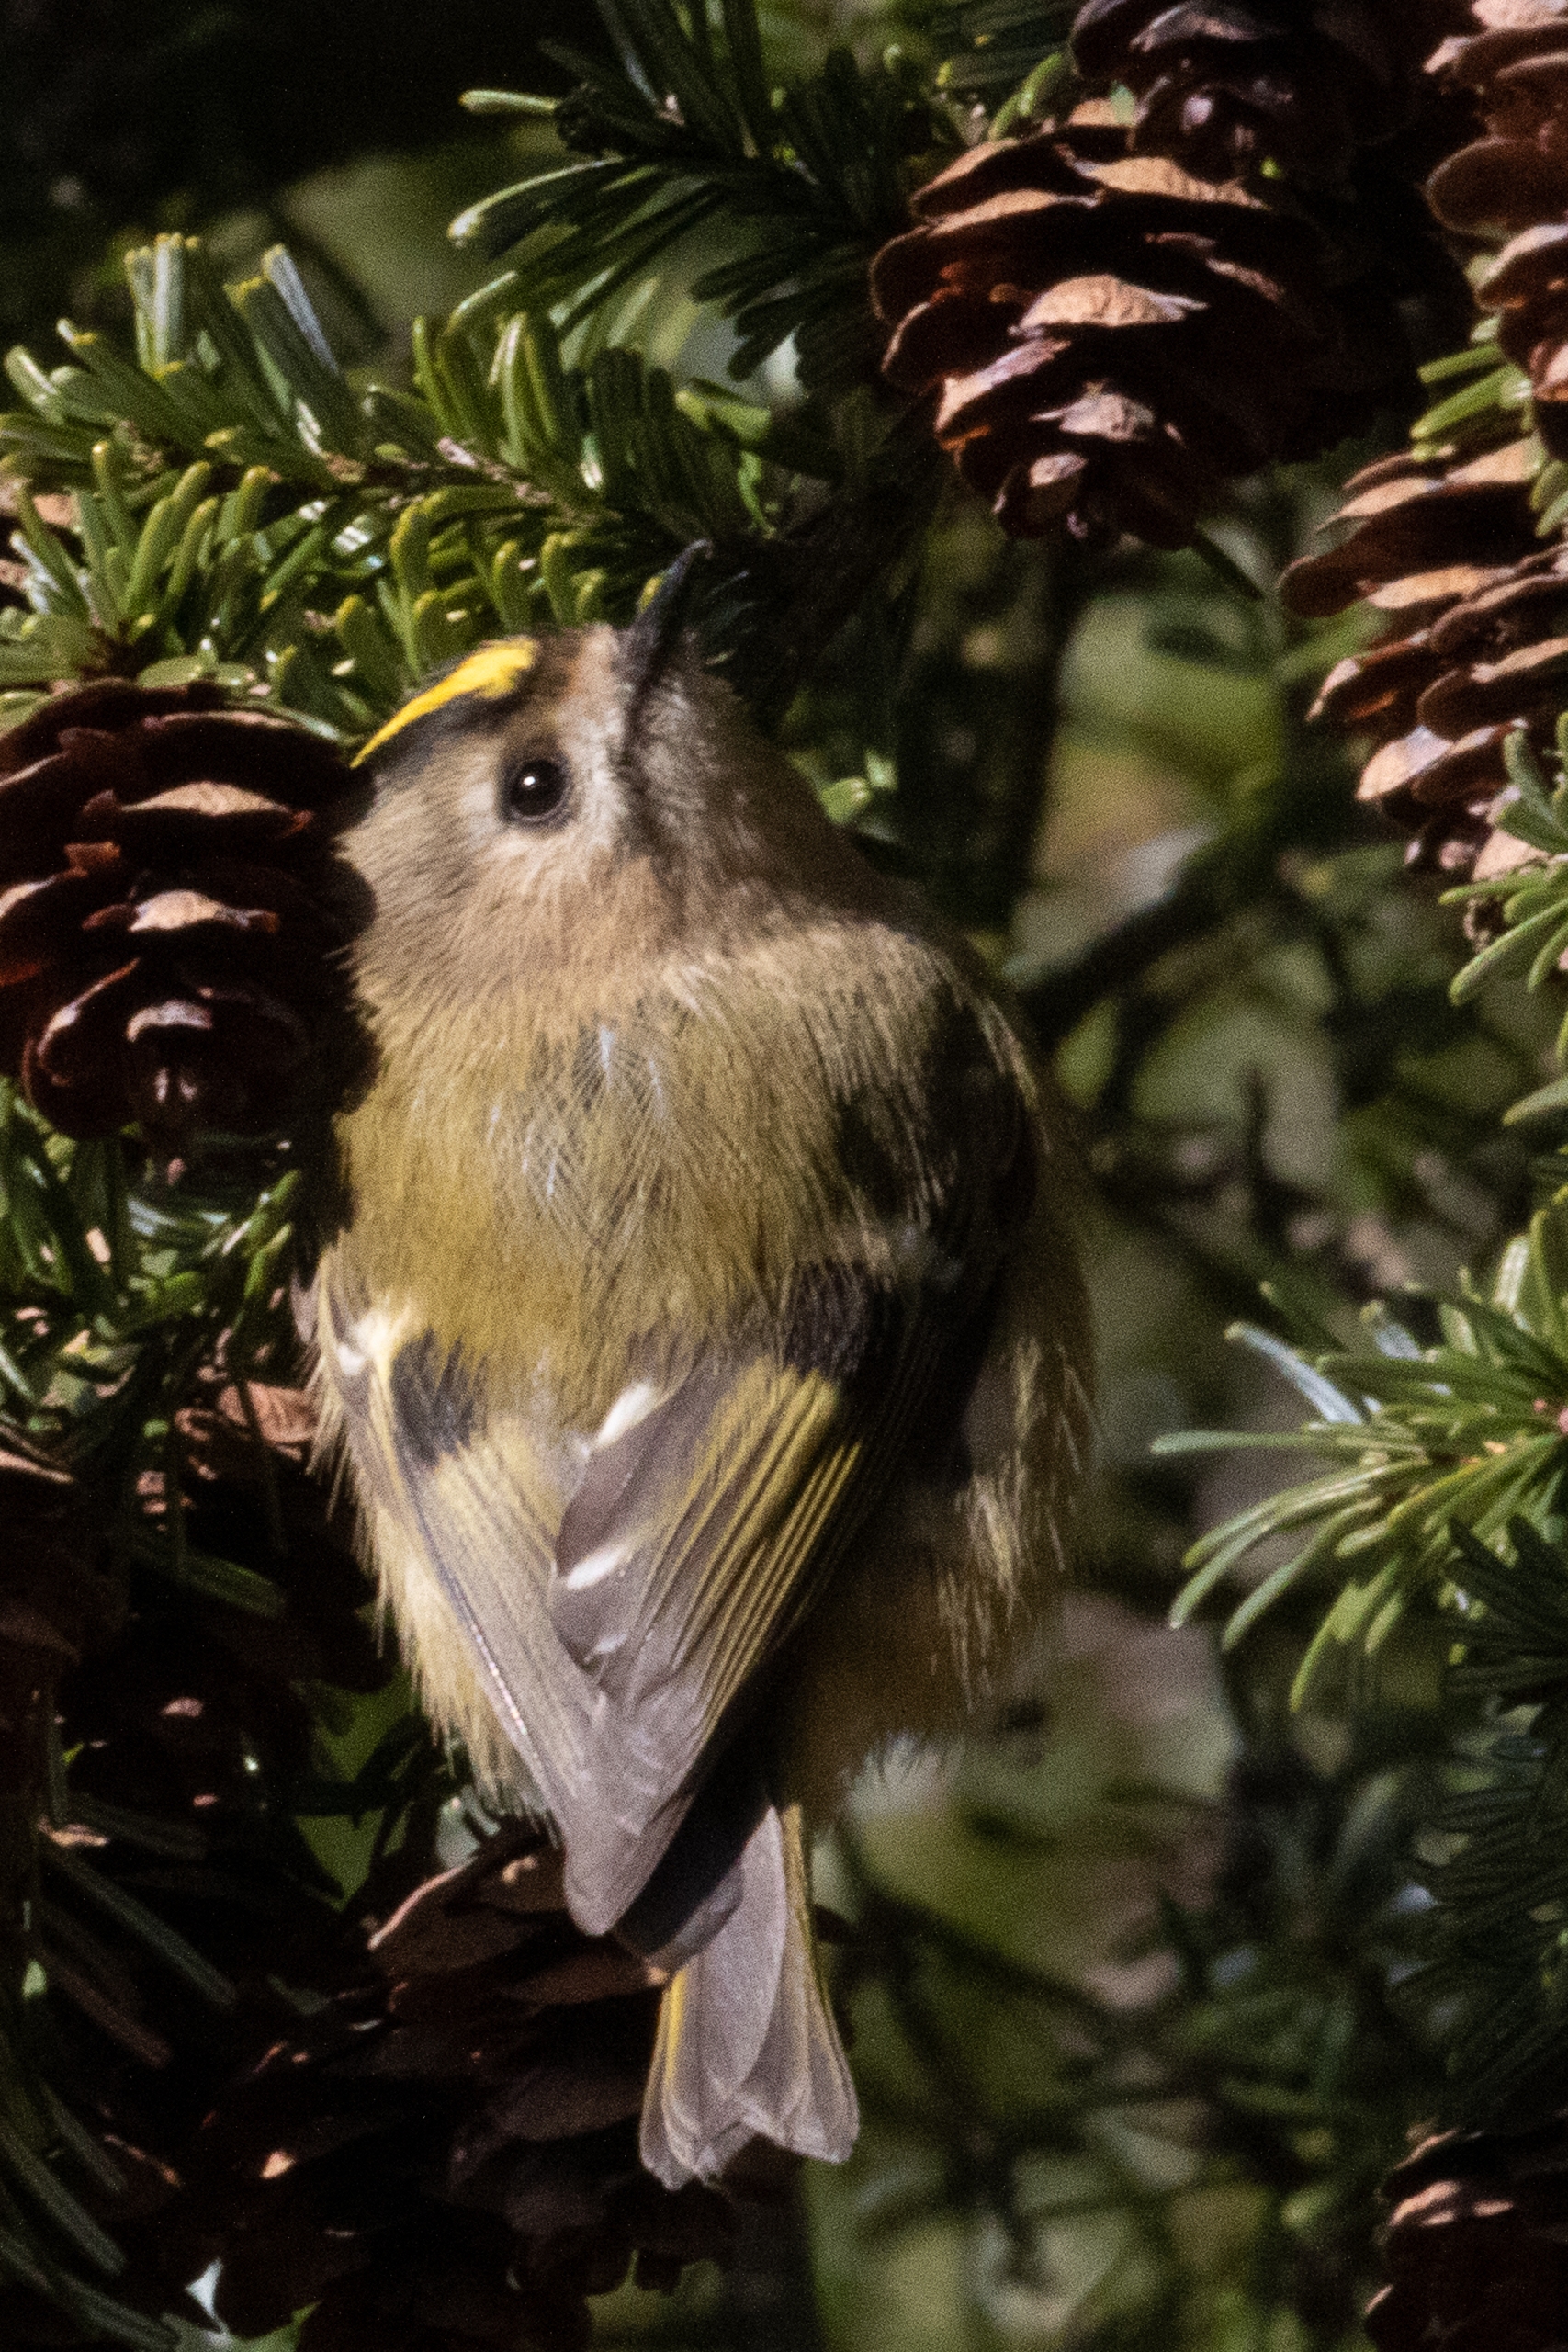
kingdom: Animalia
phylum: Chordata
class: Aves
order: Passeriformes
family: Regulidae
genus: Regulus
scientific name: Regulus regulus
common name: Fuglekonge
